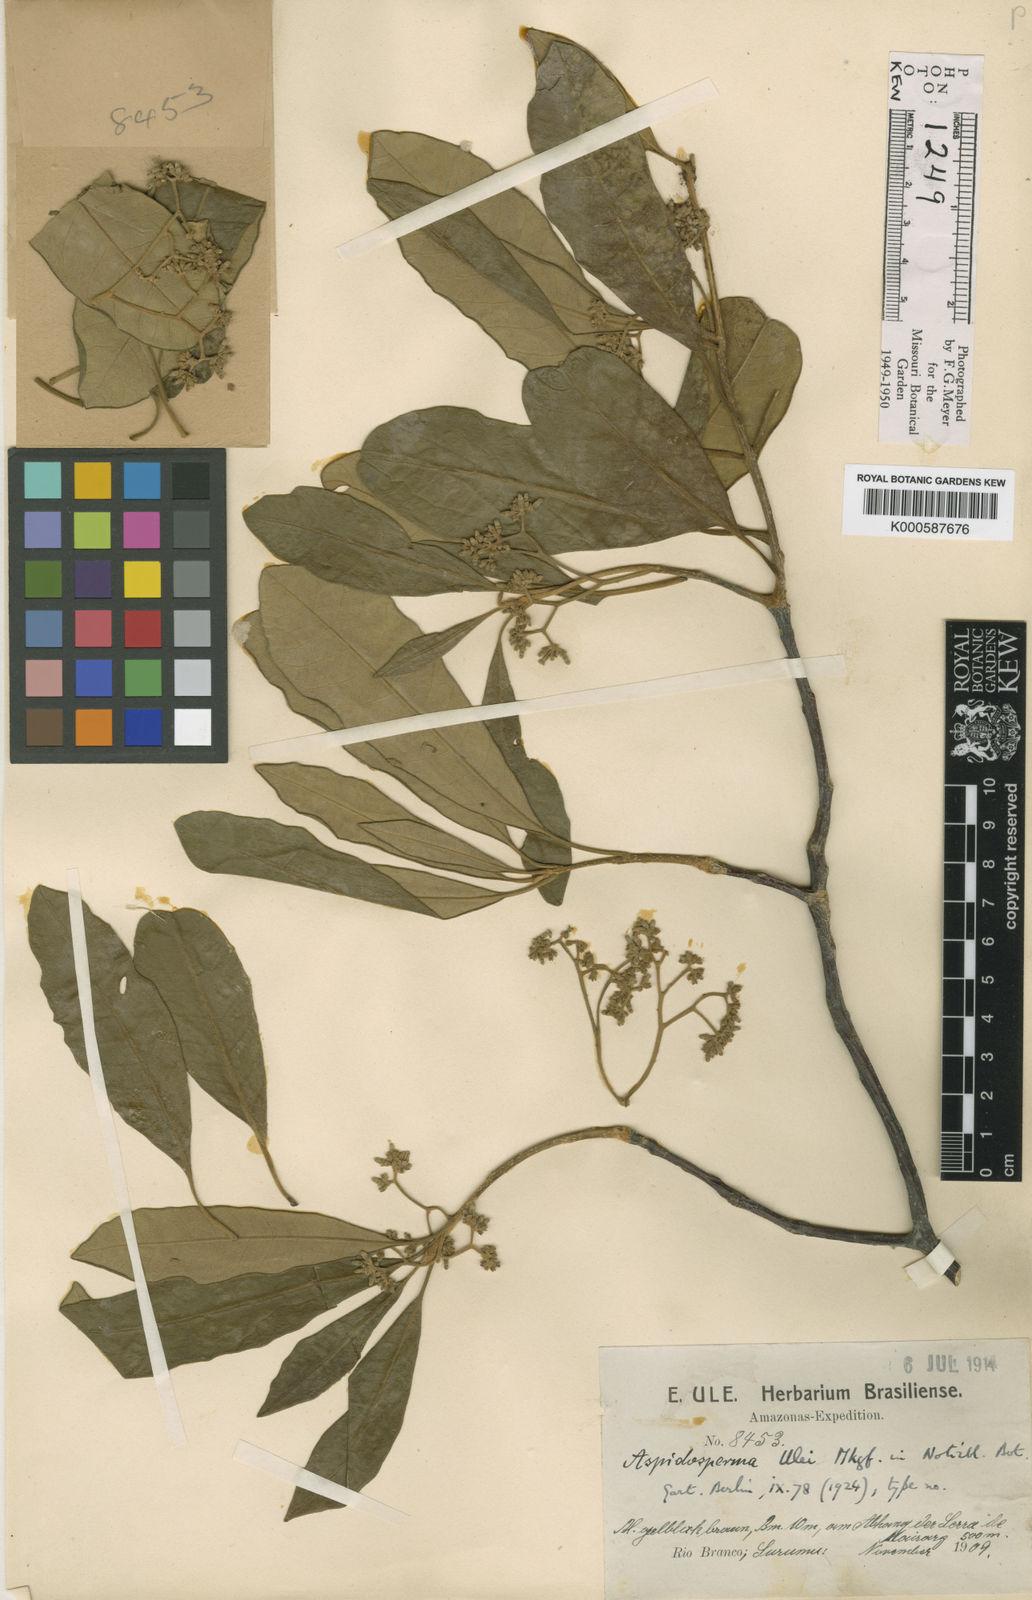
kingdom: Plantae
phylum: Tracheophyta
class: Magnoliopsida
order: Gentianales
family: Apocynaceae
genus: Aspidosperma
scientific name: Aspidosperma ulei
